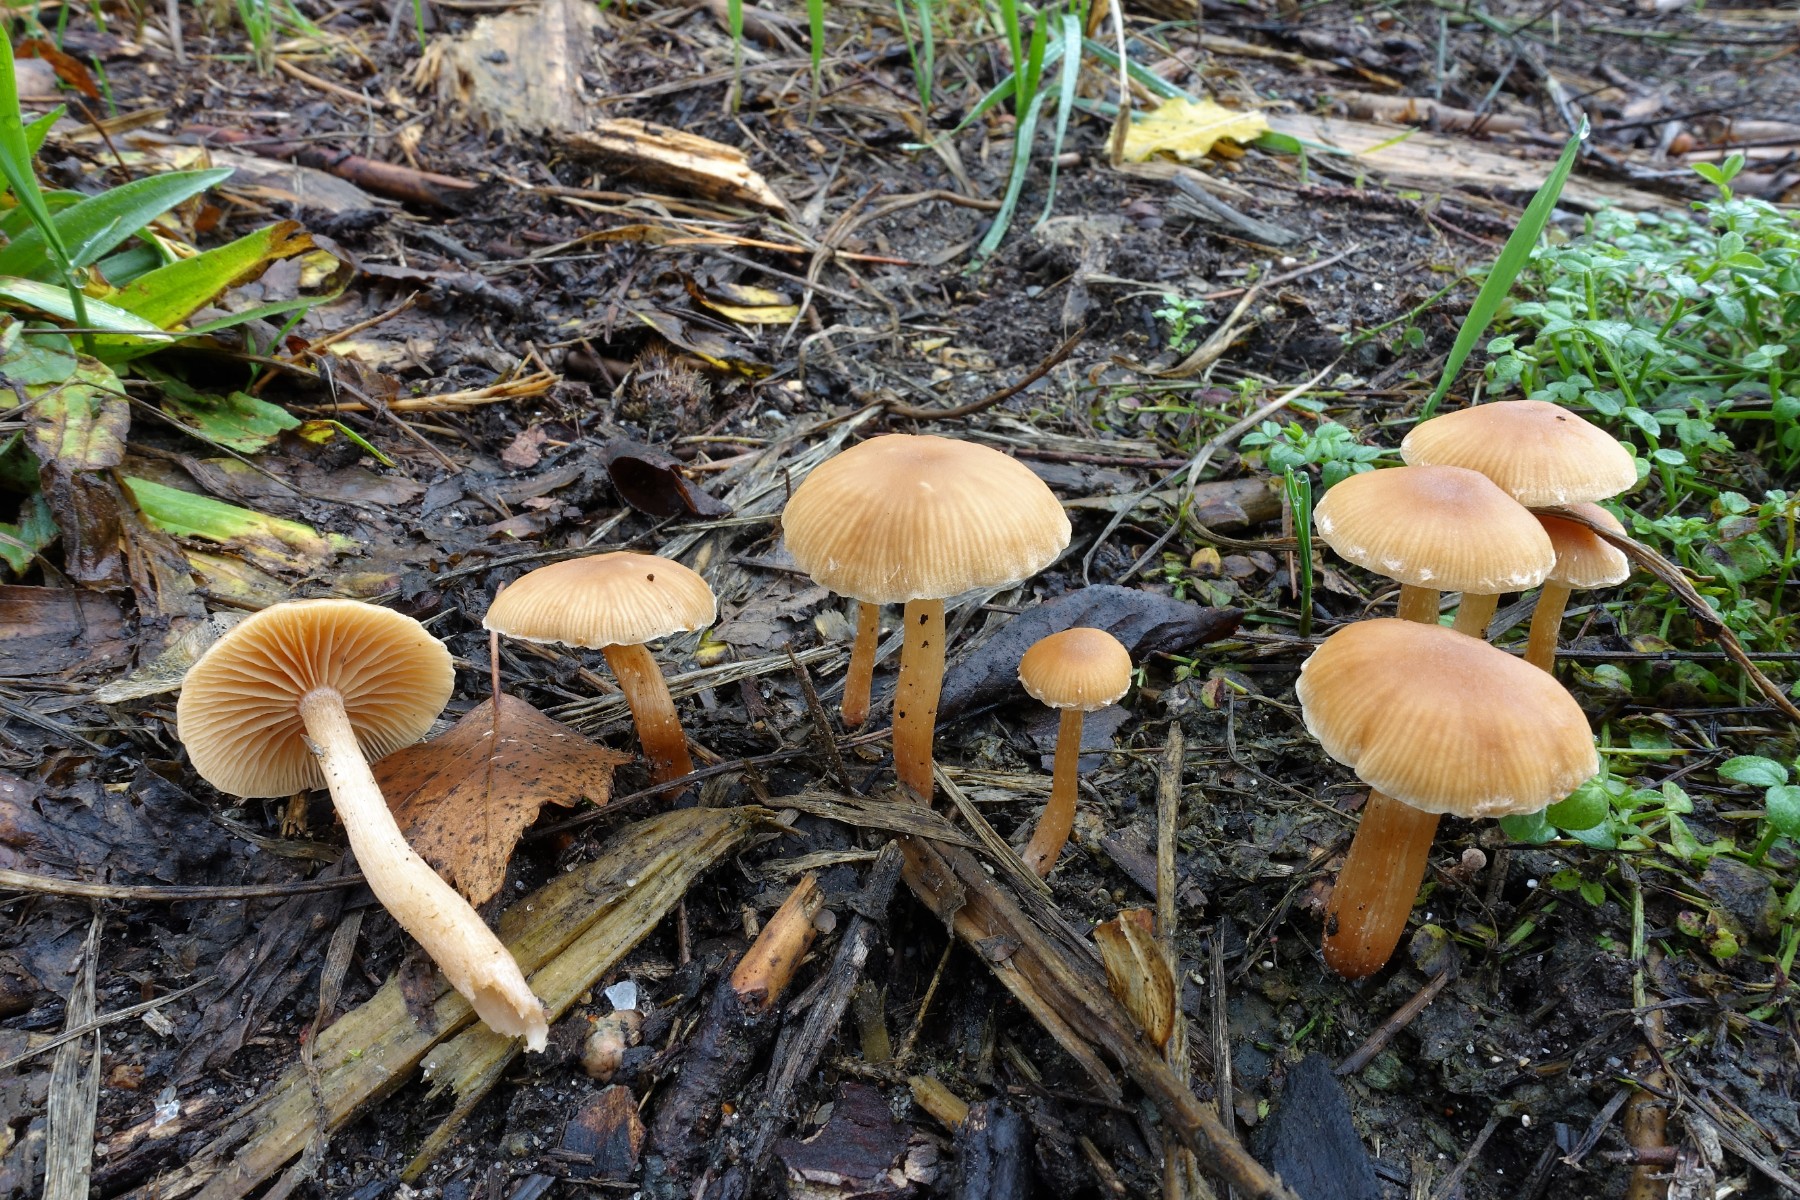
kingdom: Fungi
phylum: Basidiomycota
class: Agaricomycetes
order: Agaricales
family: Tubariaceae
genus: Tubaria
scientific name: Tubaria furfuracea
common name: kliddet fnughat
